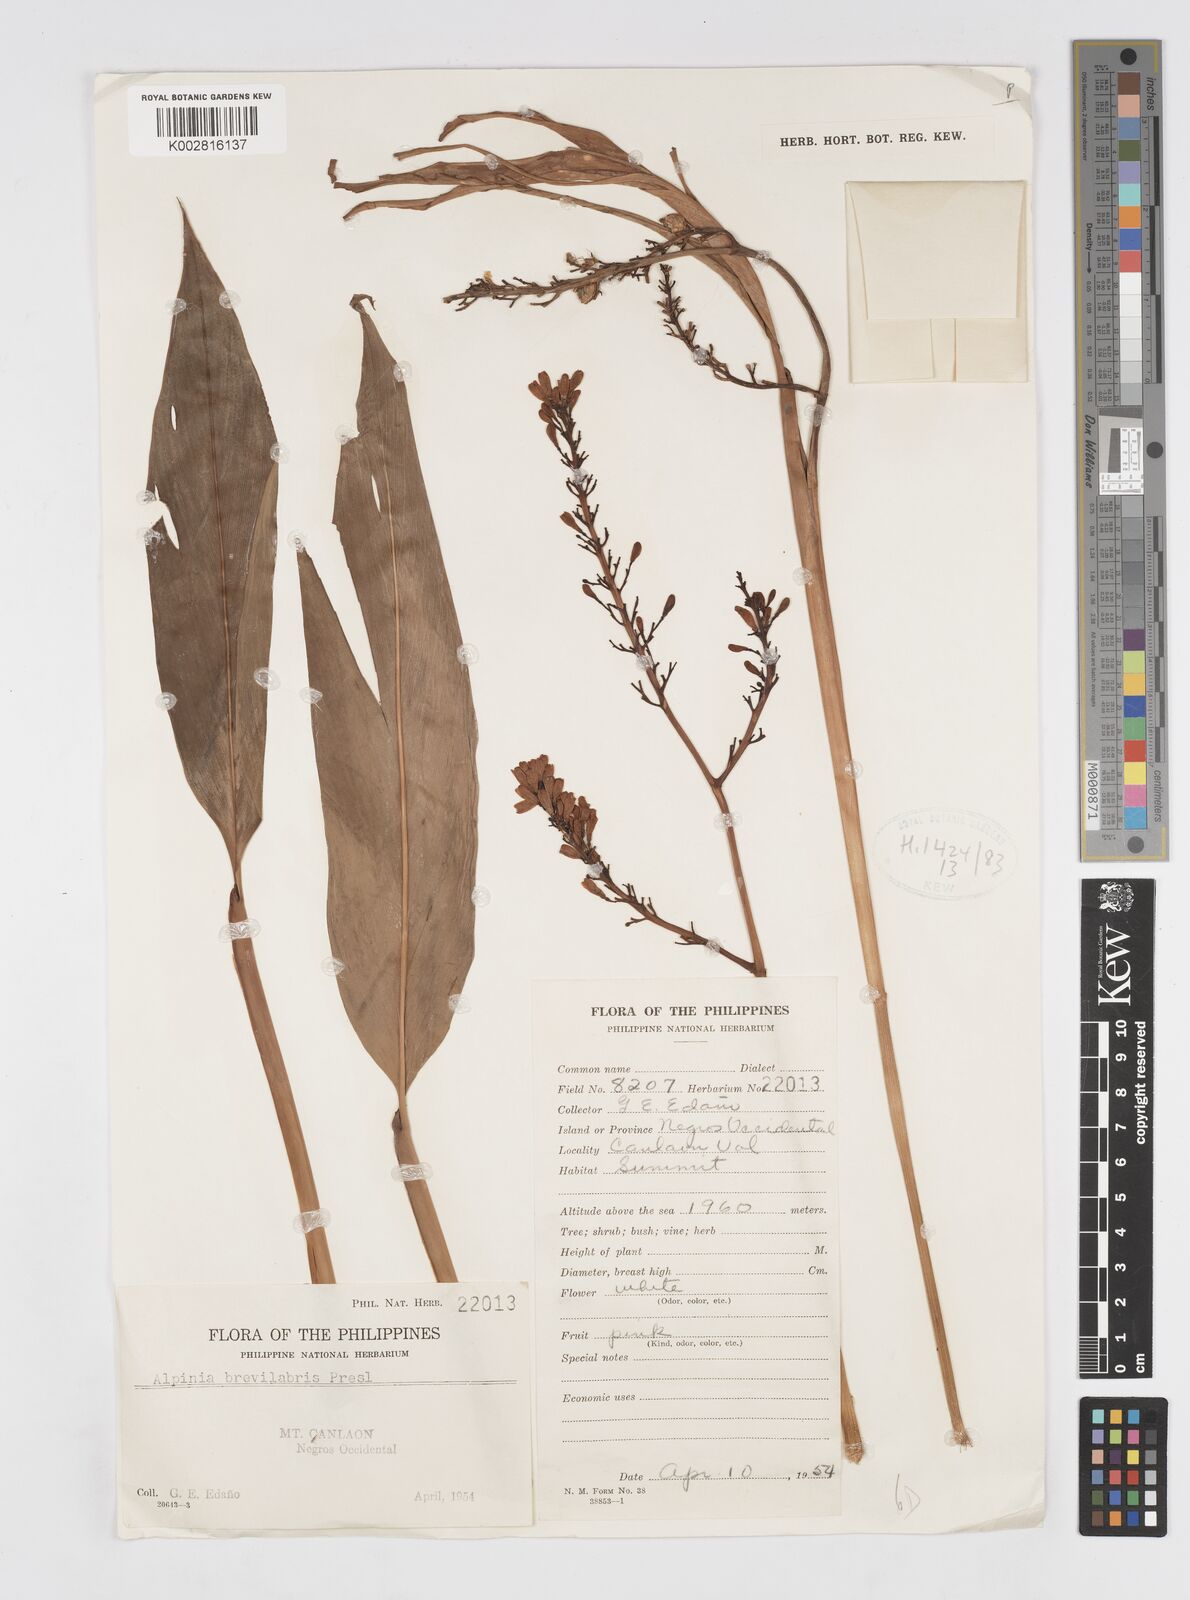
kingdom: Plantae
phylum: Tracheophyta
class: Liliopsida
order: Zingiberales
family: Zingiberaceae
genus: Alpinia
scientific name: Alpinia brevilabris
